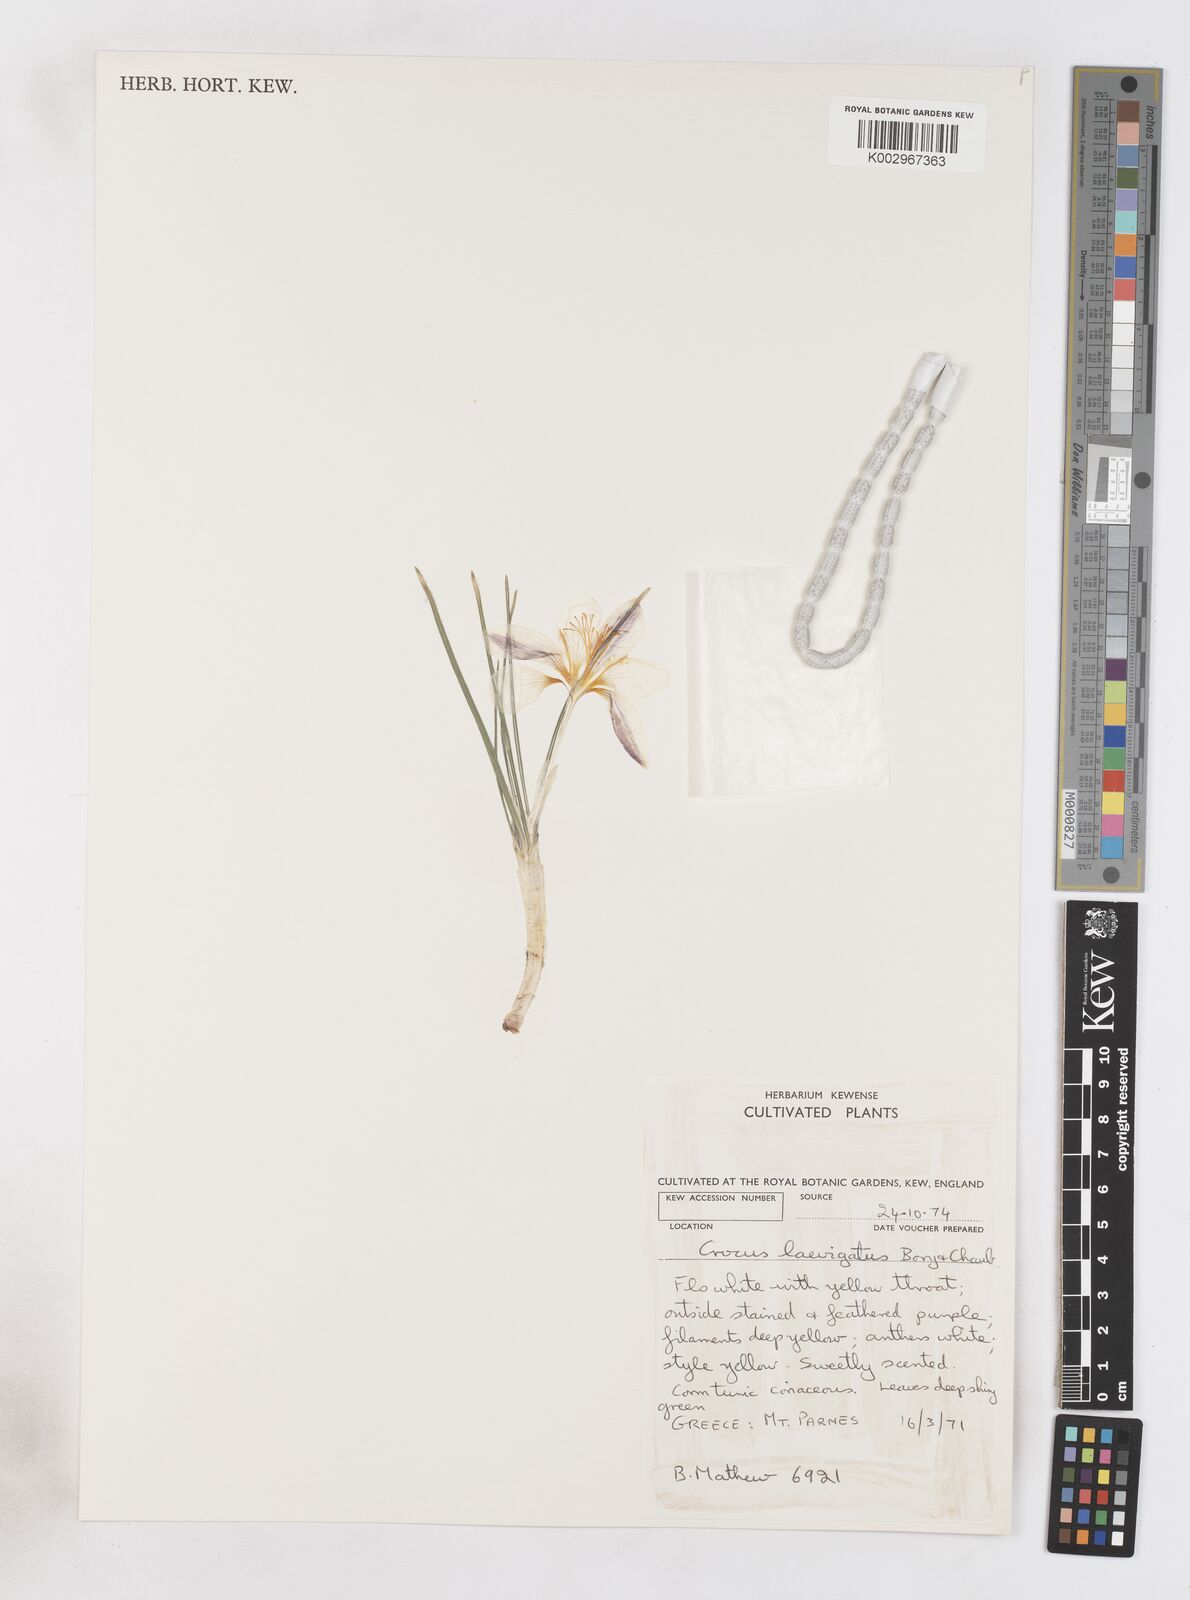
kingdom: Plantae
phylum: Tracheophyta
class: Liliopsida
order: Asparagales
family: Iridaceae
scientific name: Iridaceae
